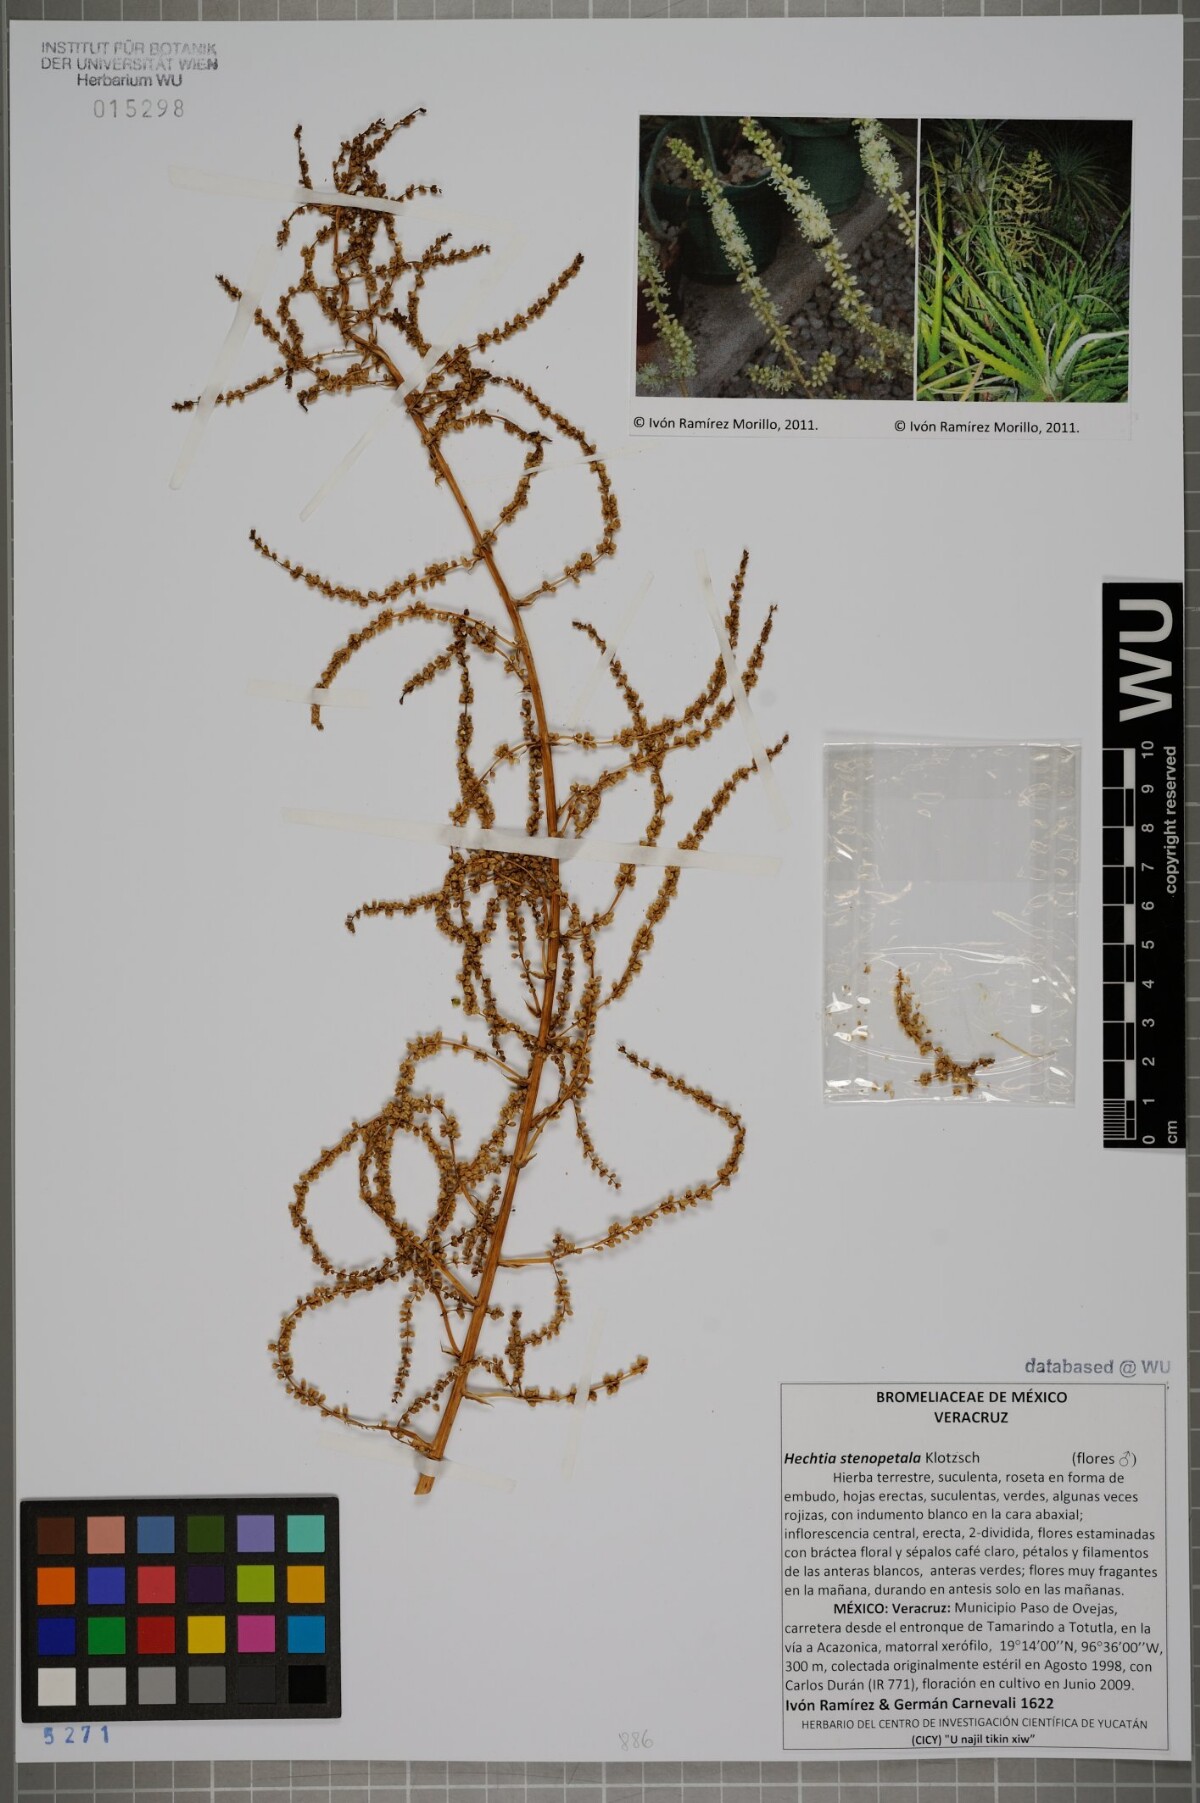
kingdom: Plantae
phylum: Tracheophyta
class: Liliopsida
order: Poales
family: Bromeliaceae
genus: Hechtia
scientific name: Hechtia stenopetala
